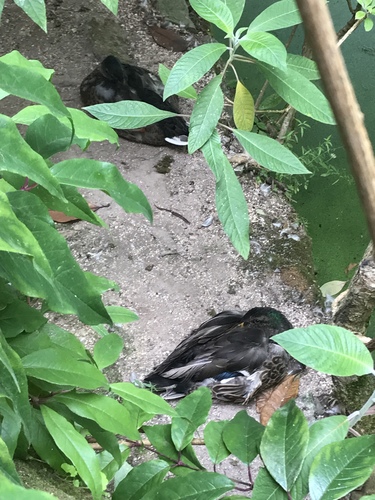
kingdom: Animalia
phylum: Chordata
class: Aves
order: Anseriformes
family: Anatidae
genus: Anas
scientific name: Anas platyrhynchos
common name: Mallard
